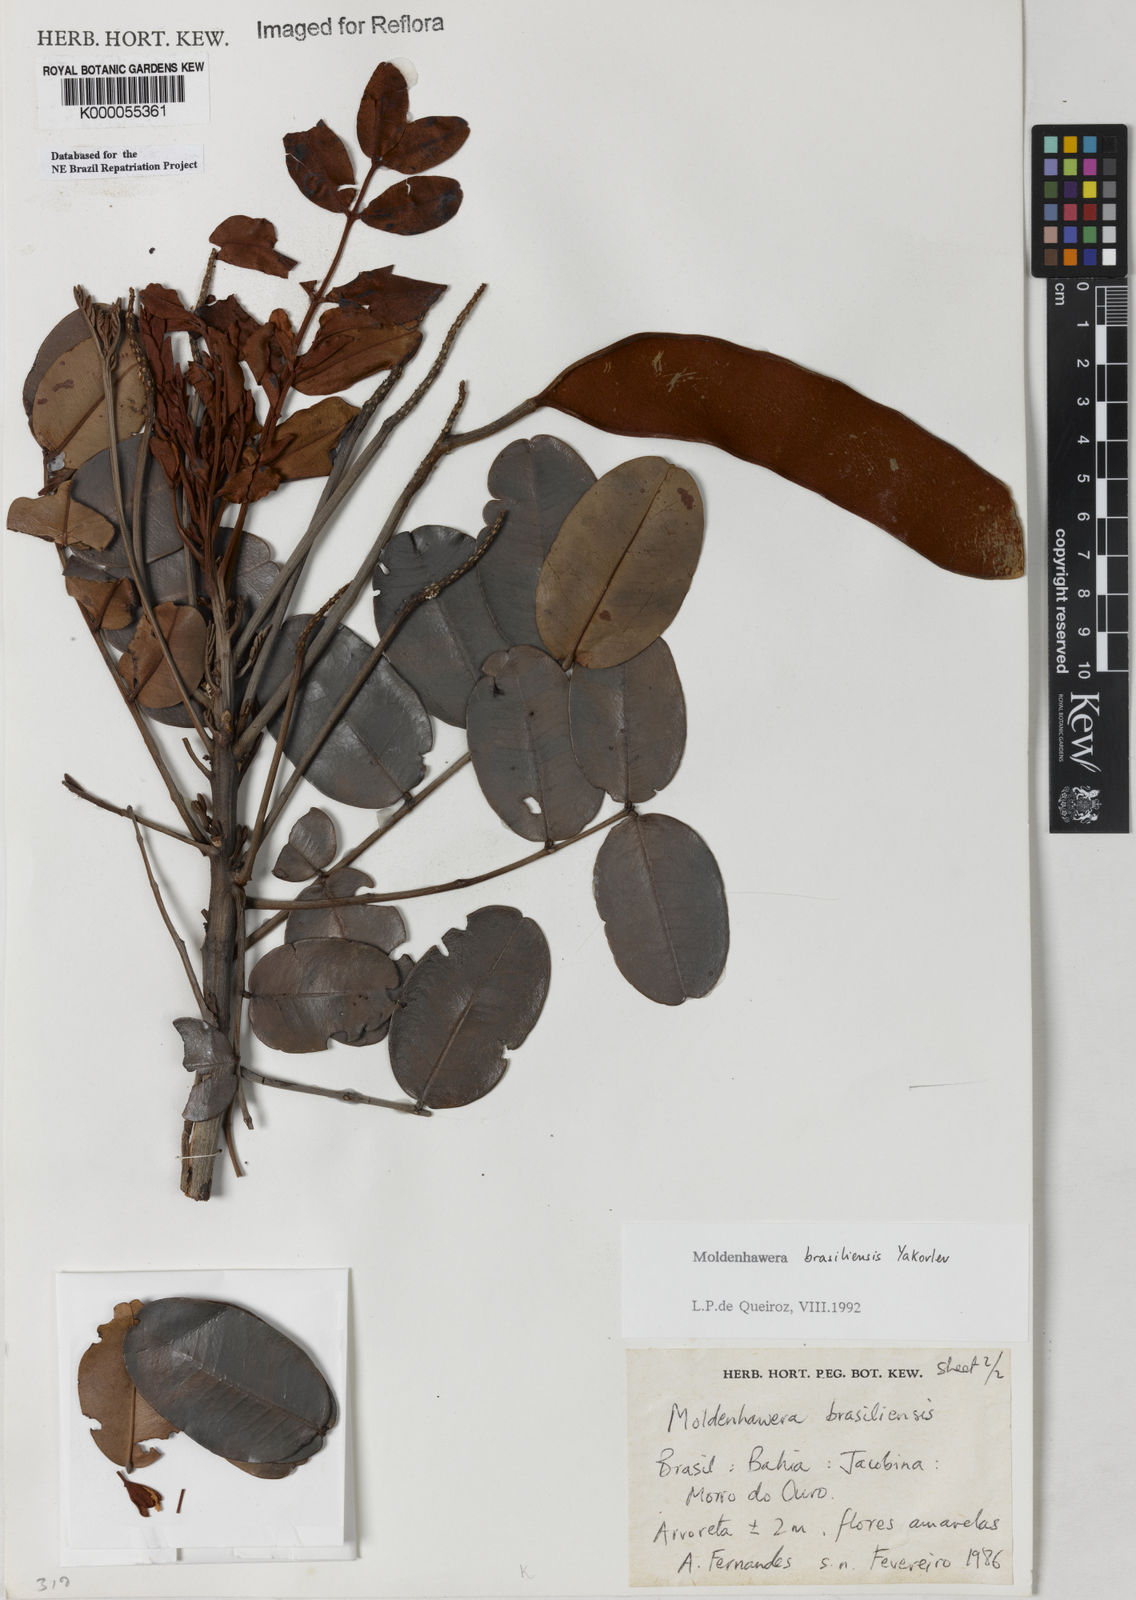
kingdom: Plantae
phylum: Tracheophyta
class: Magnoliopsida
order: Fabales
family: Fabaceae
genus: Moldenhawera
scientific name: Moldenhawera brasiliensis
